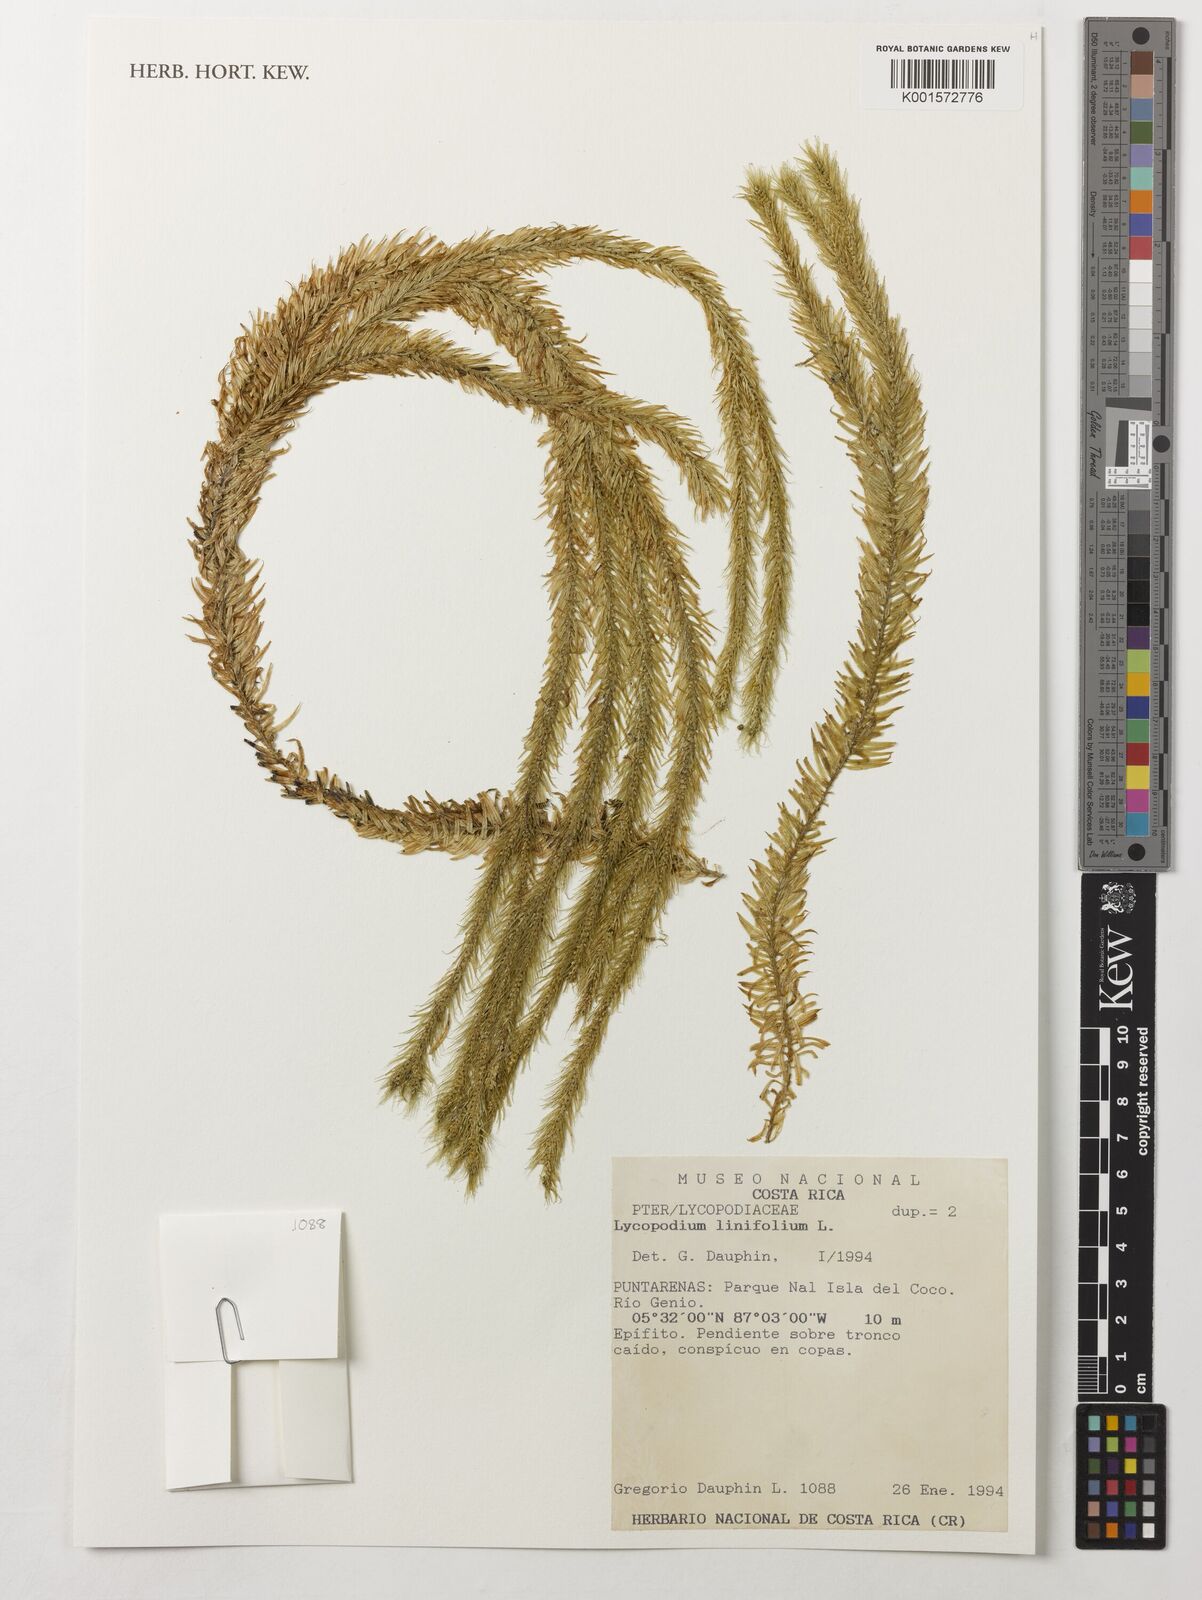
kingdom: Plantae
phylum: Tracheophyta
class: Lycopodiopsida
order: Lycopodiales
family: Lycopodiaceae
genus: Phlegmariurus
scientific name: Phlegmariurus linifolius
